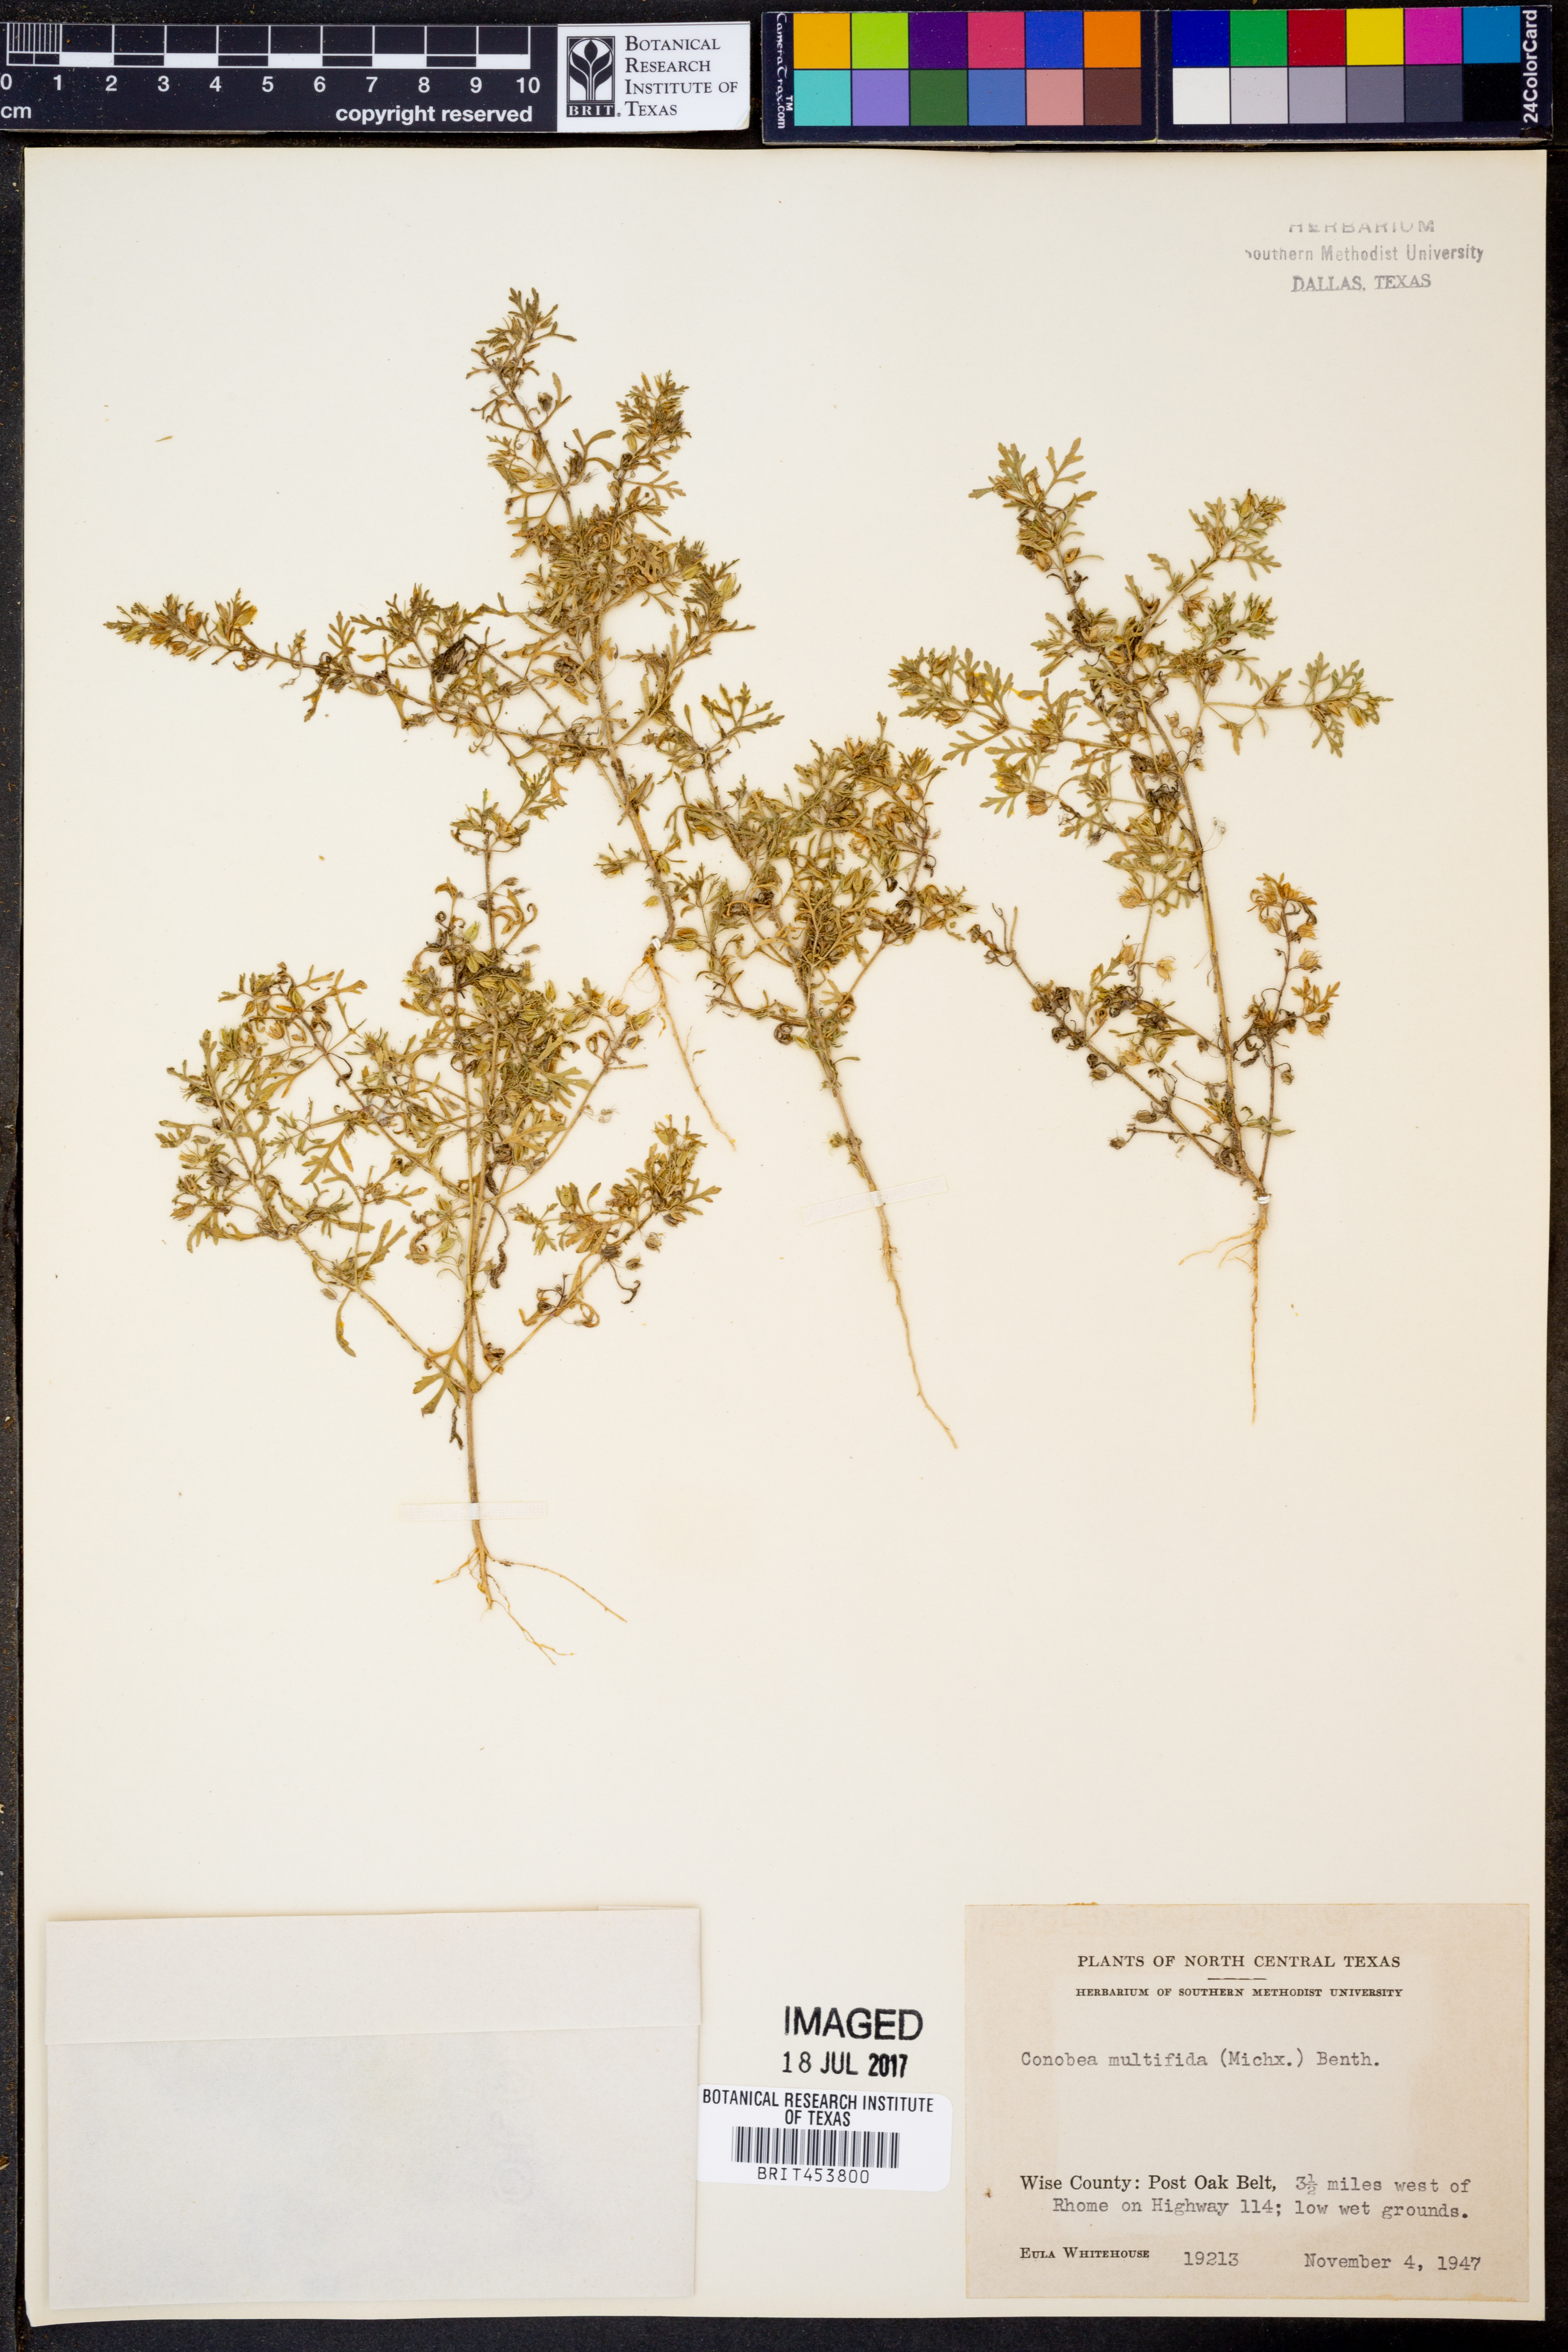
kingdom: Plantae
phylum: Tracheophyta
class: Magnoliopsida
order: Lamiales
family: Plantaginaceae
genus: Leucospora
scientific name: Leucospora multifida
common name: Narrow-leaf paleseed
